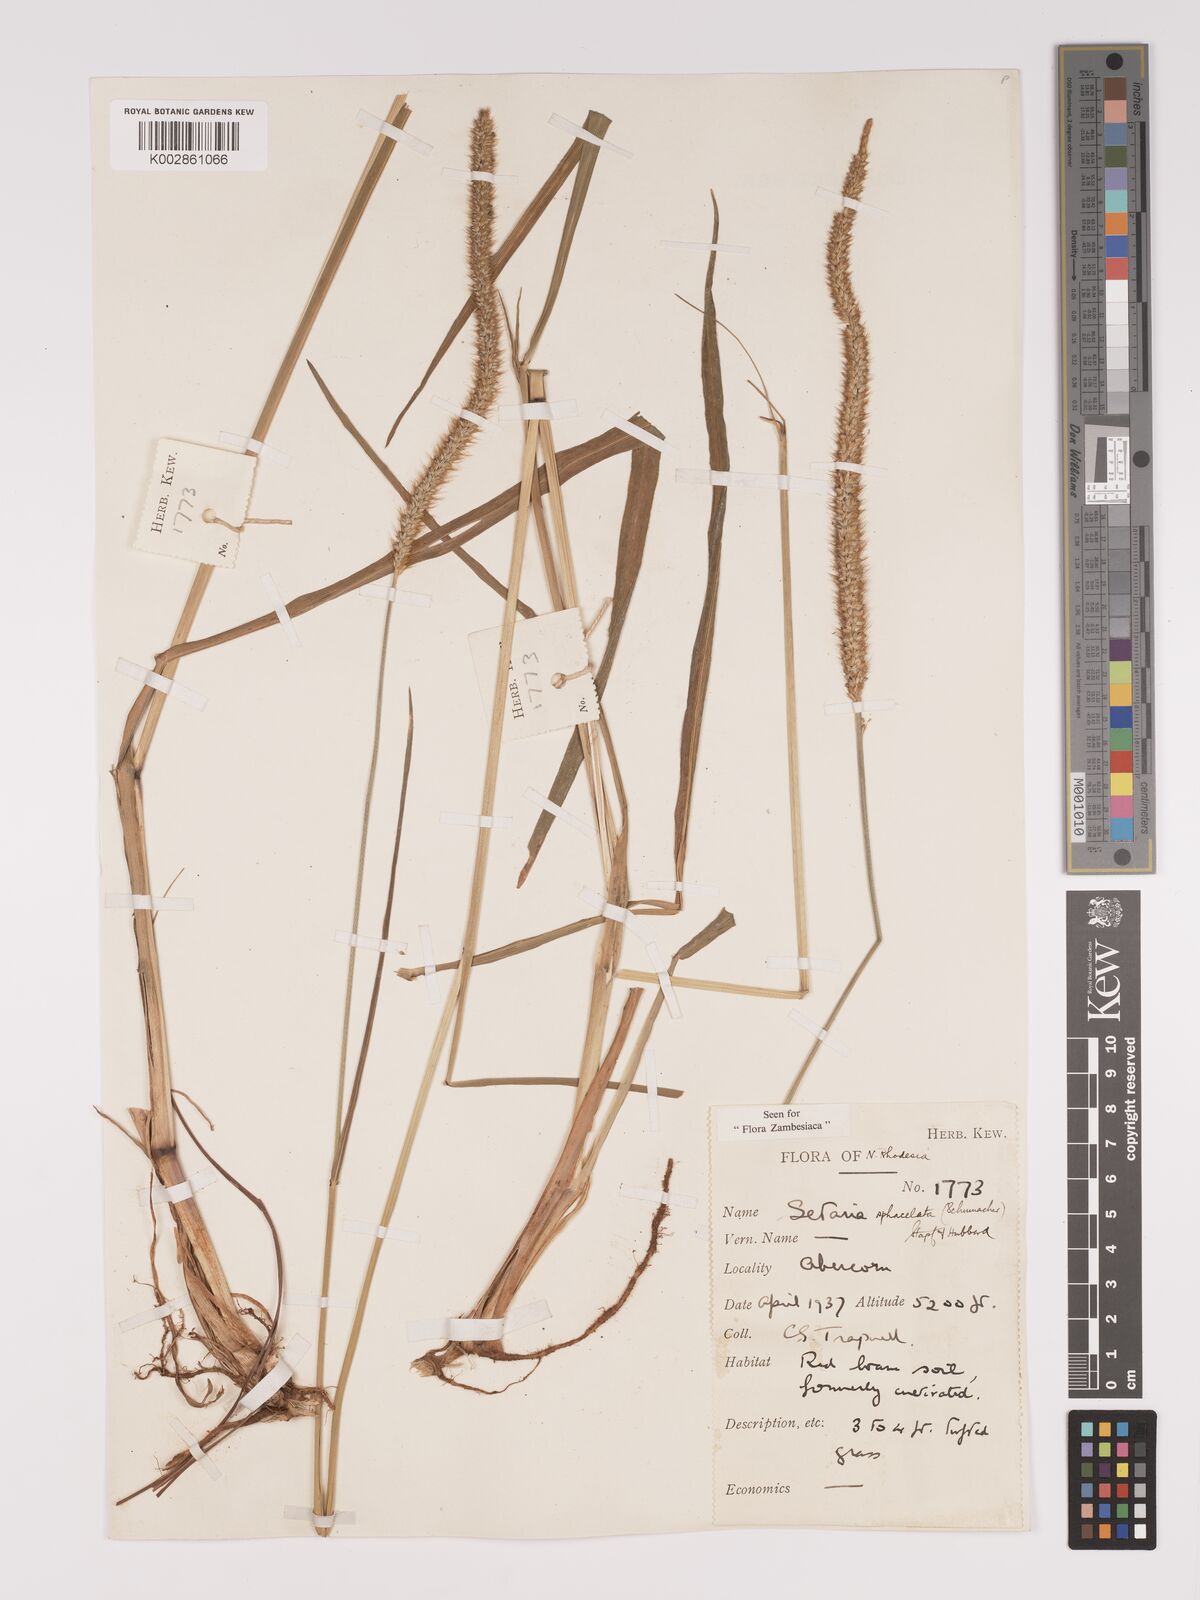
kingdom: Plantae
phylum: Tracheophyta
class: Liliopsida
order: Poales
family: Poaceae
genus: Setaria
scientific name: Setaria sphacelata
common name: African bristlegrass
